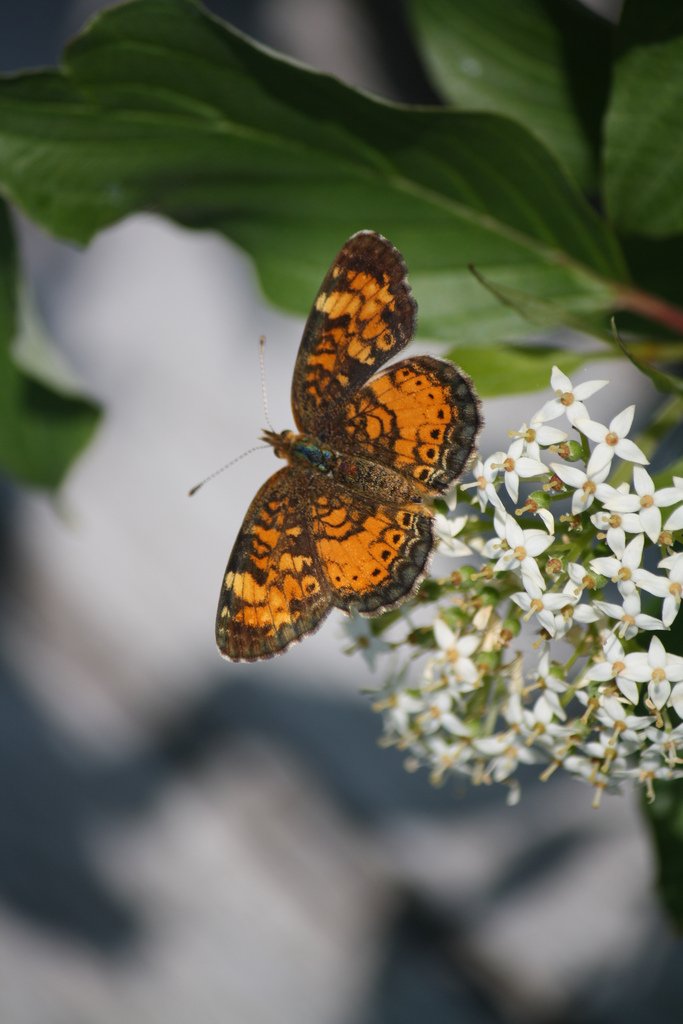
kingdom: Animalia
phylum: Arthropoda
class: Insecta
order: Lepidoptera
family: Nymphalidae
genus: Phyciodes
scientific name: Phyciodes tharos
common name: Northern Crescent
